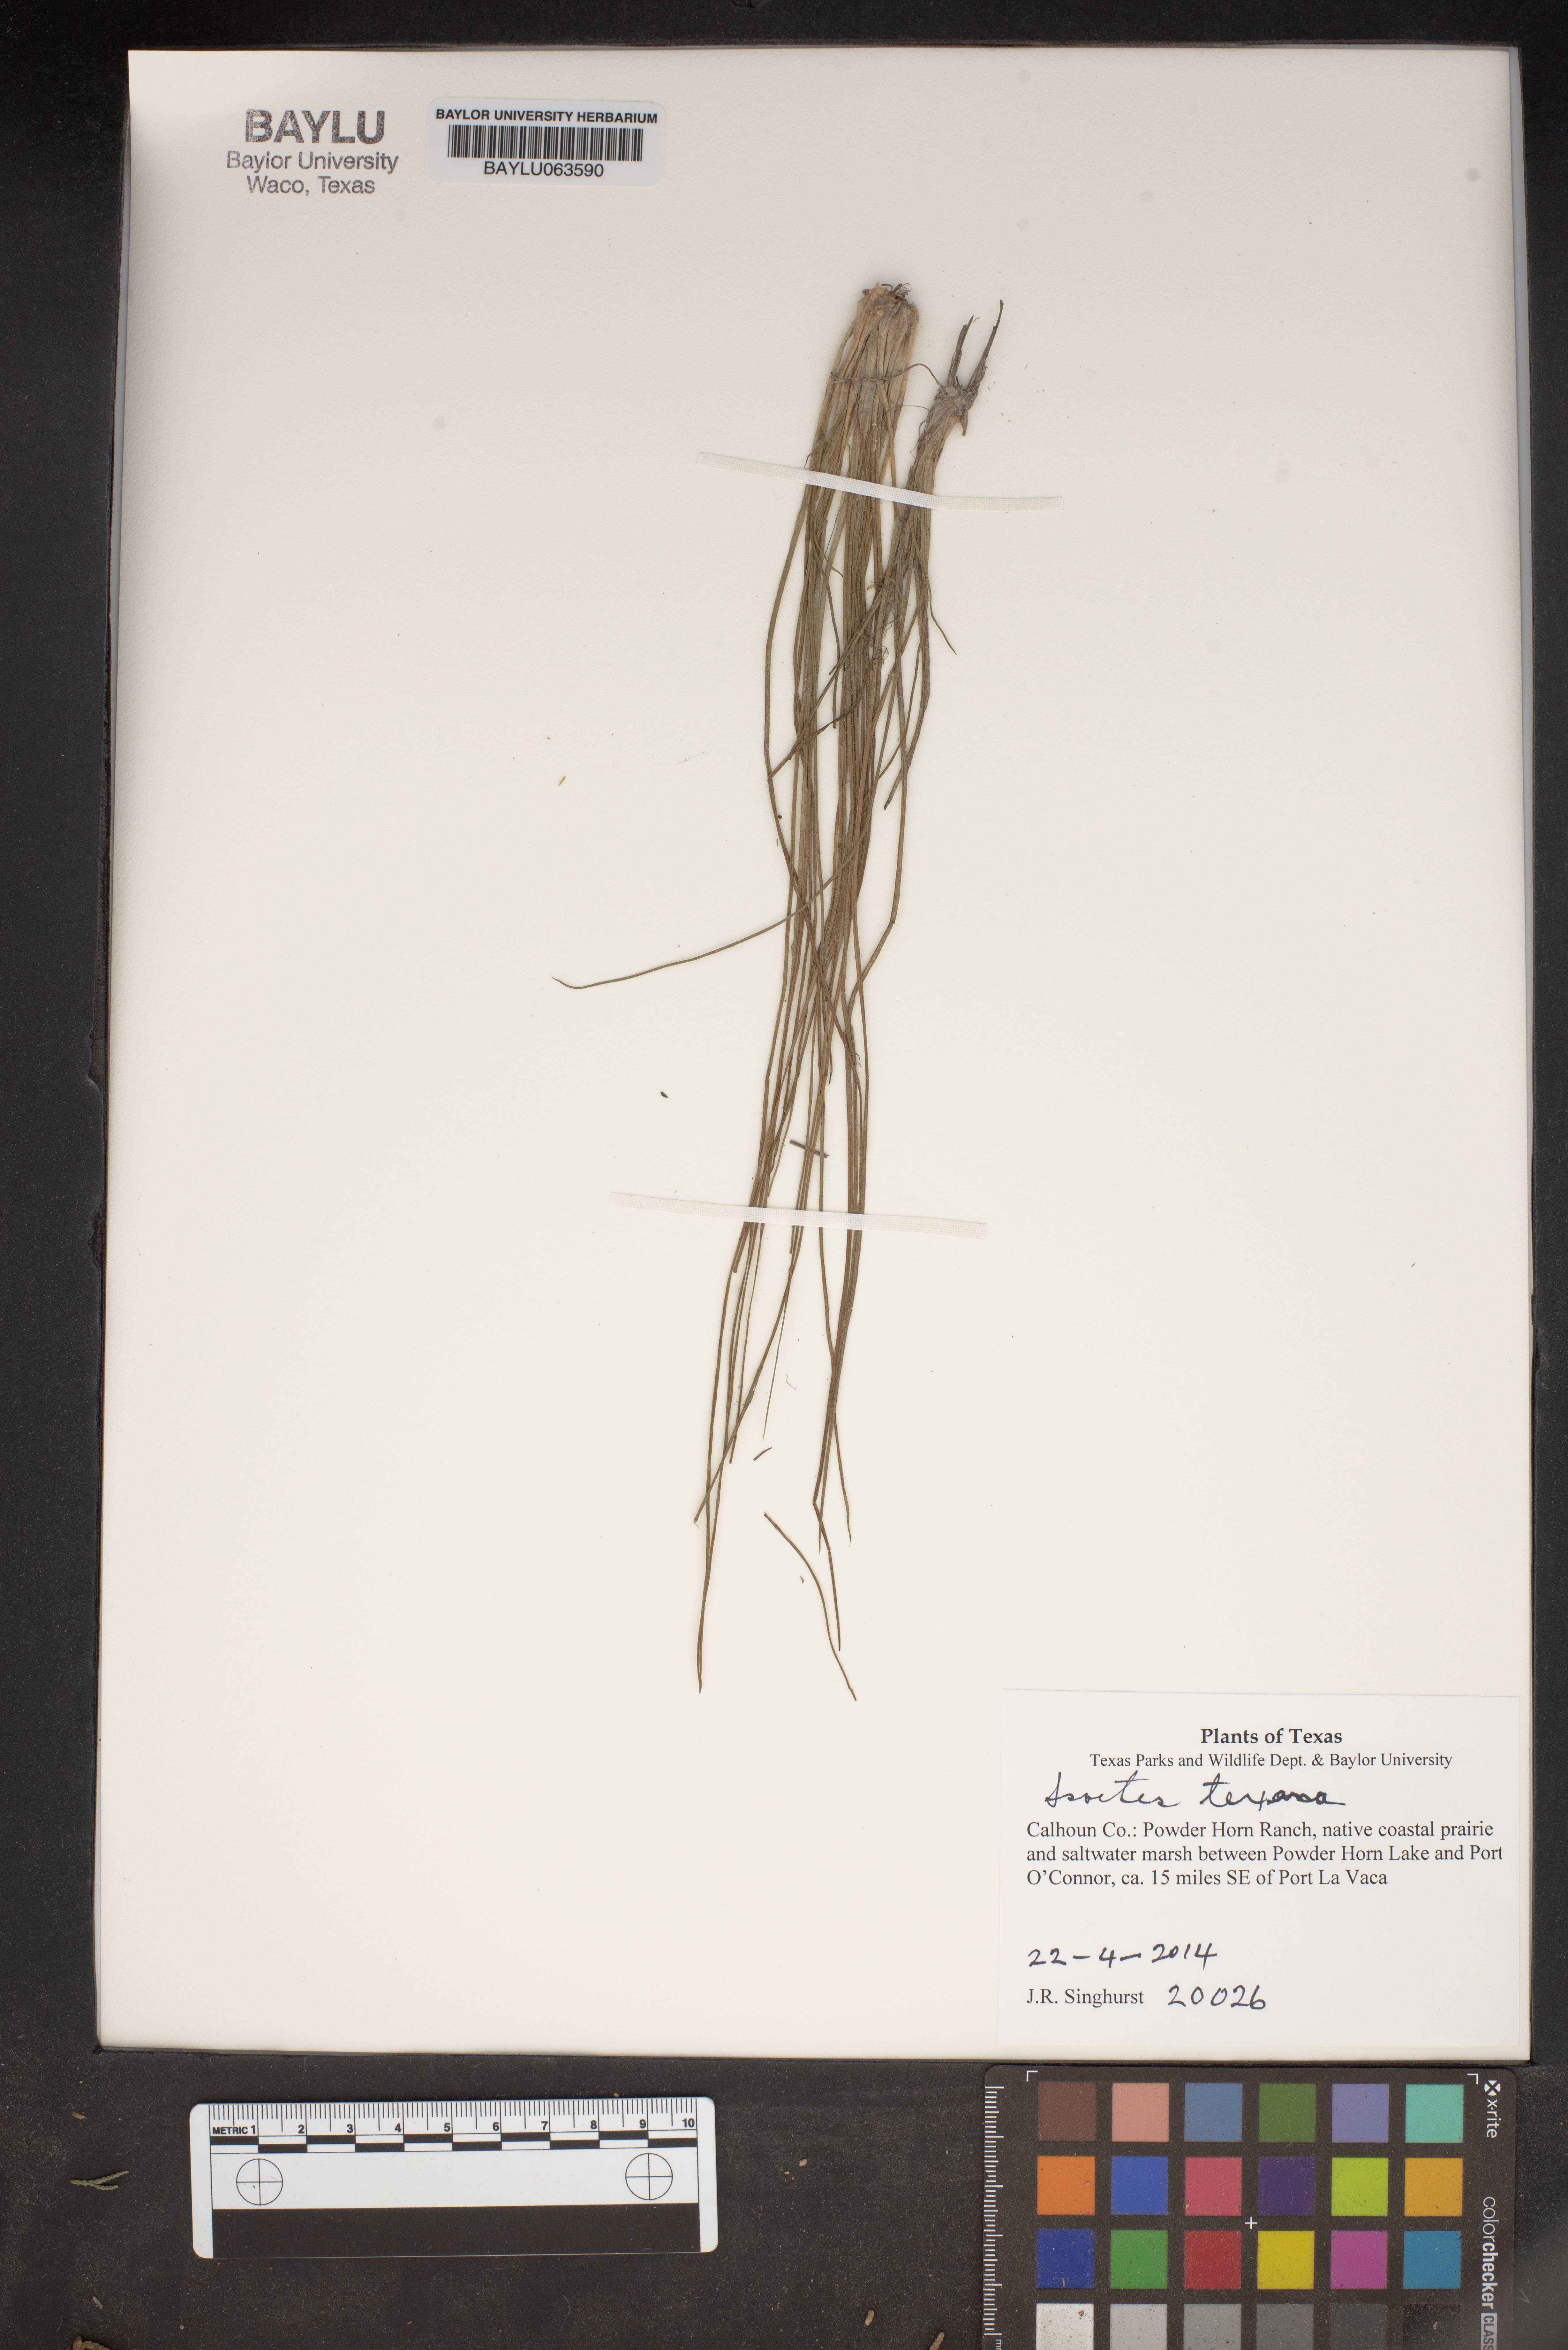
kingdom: Plantae
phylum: Tracheophyta
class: Lycopodiopsida
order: Isoetales
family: Isoetaceae
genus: Isoetes
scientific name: Isoetes texana
